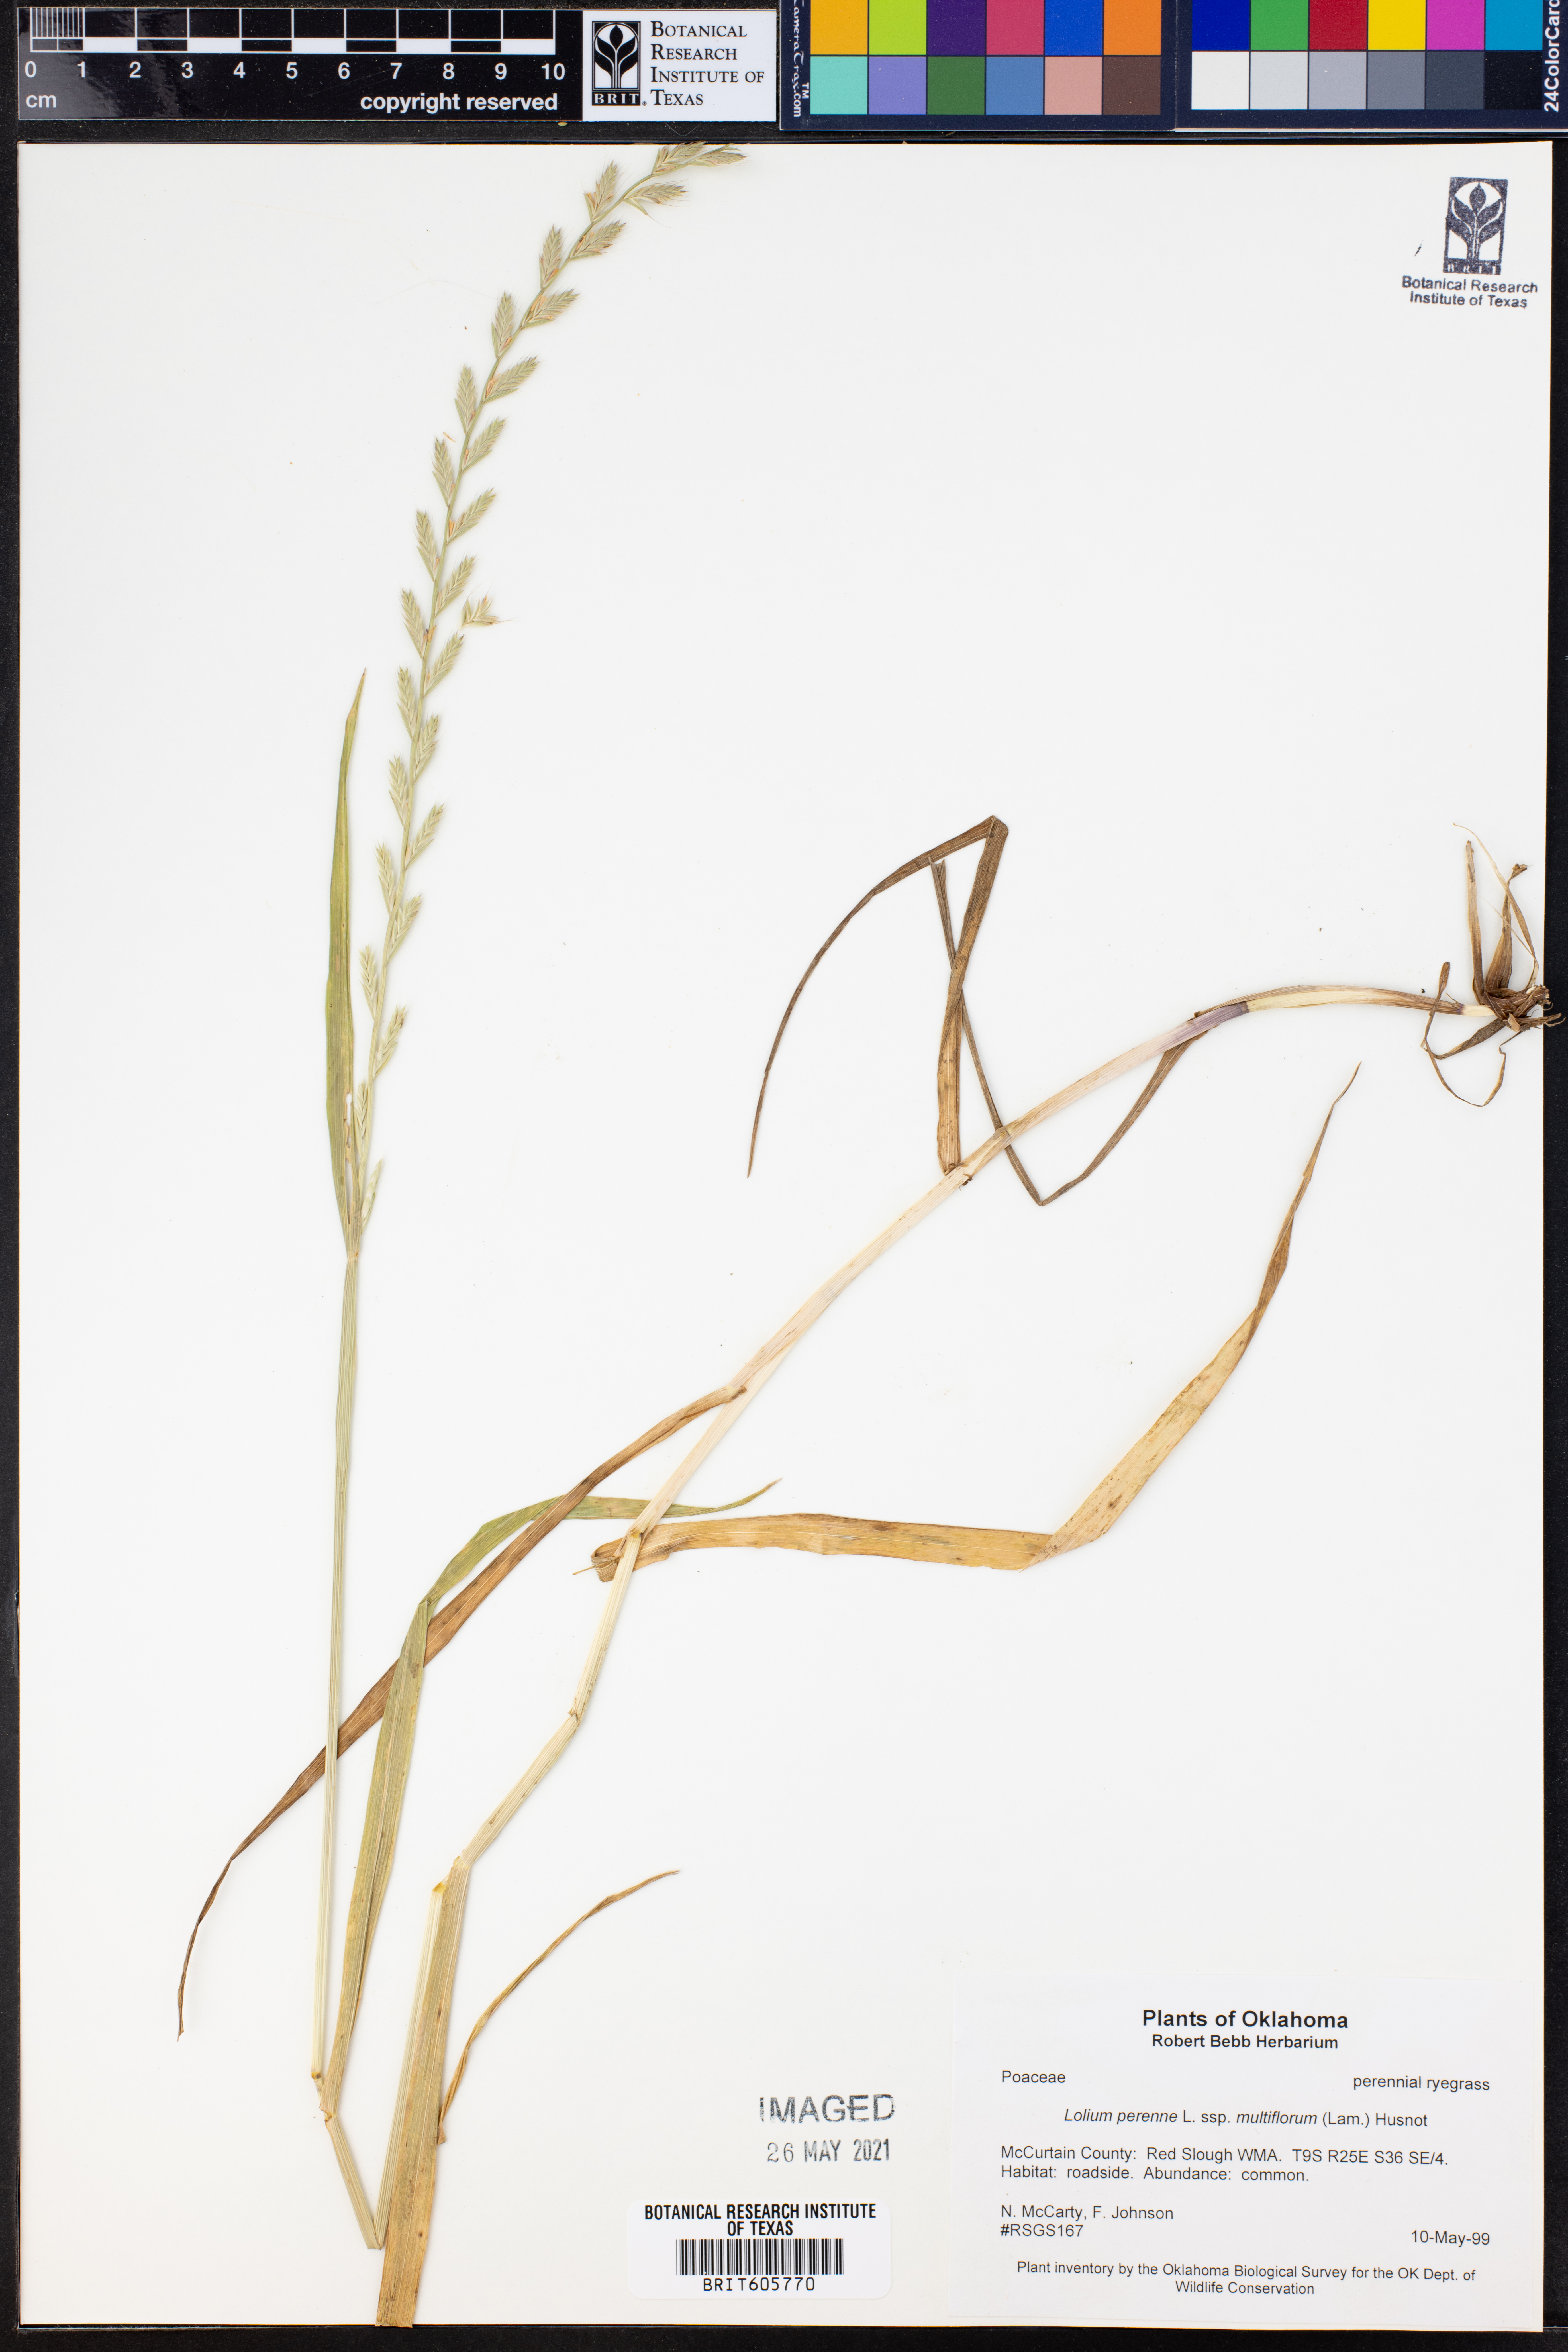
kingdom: Plantae
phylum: Tracheophyta
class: Liliopsida
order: Poales
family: Poaceae
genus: Lolium
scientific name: Lolium multiflorum
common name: Annual ryegrass
